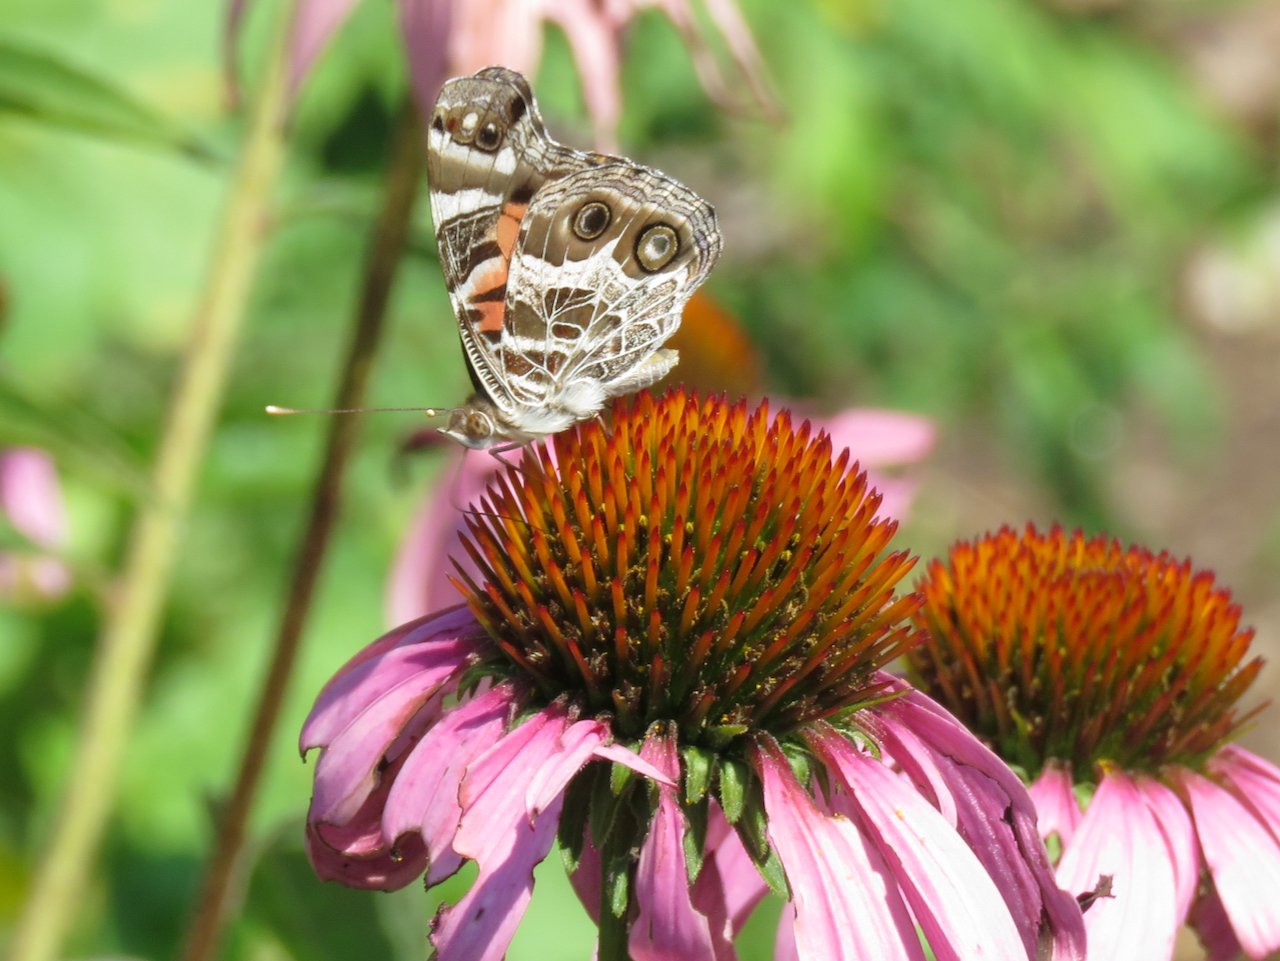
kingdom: Animalia
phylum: Arthropoda
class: Insecta
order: Lepidoptera
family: Nymphalidae
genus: Vanessa
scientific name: Vanessa virginiensis
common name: American Lady
